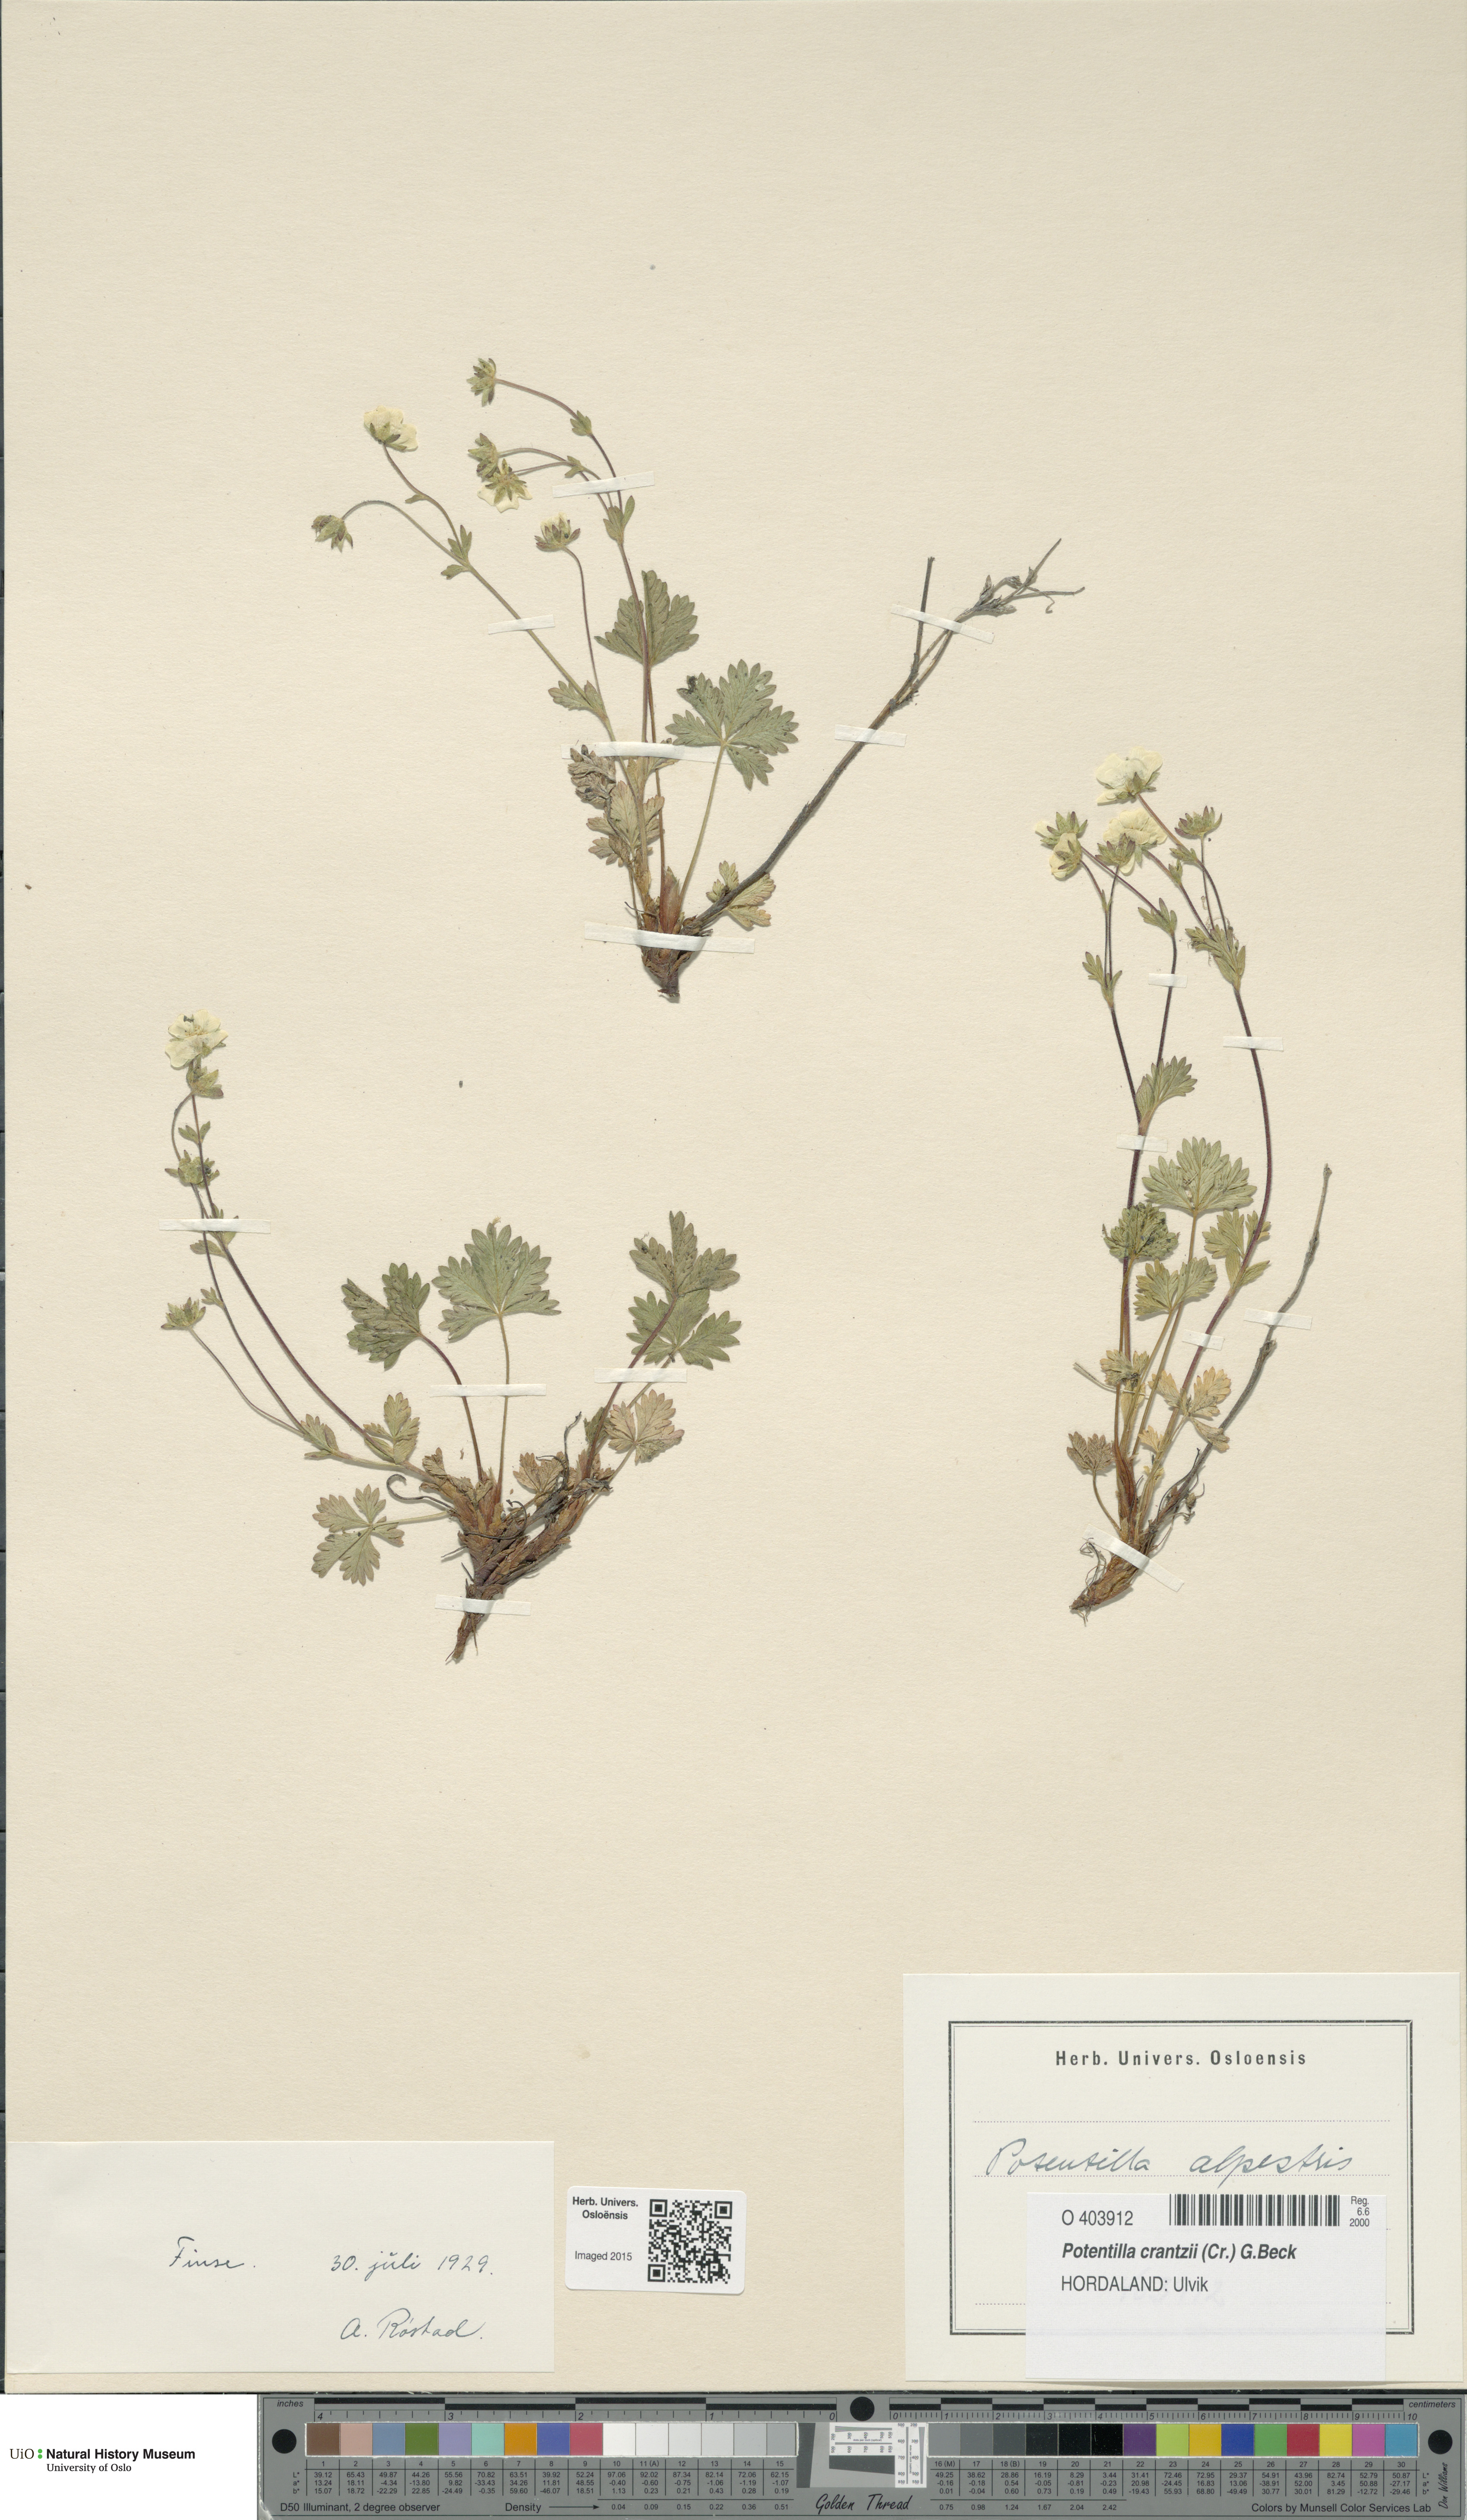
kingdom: Plantae
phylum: Tracheophyta
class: Magnoliopsida
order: Rosales
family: Rosaceae
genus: Potentilla
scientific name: Potentilla crantzii
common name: Alpine cinquefoil
